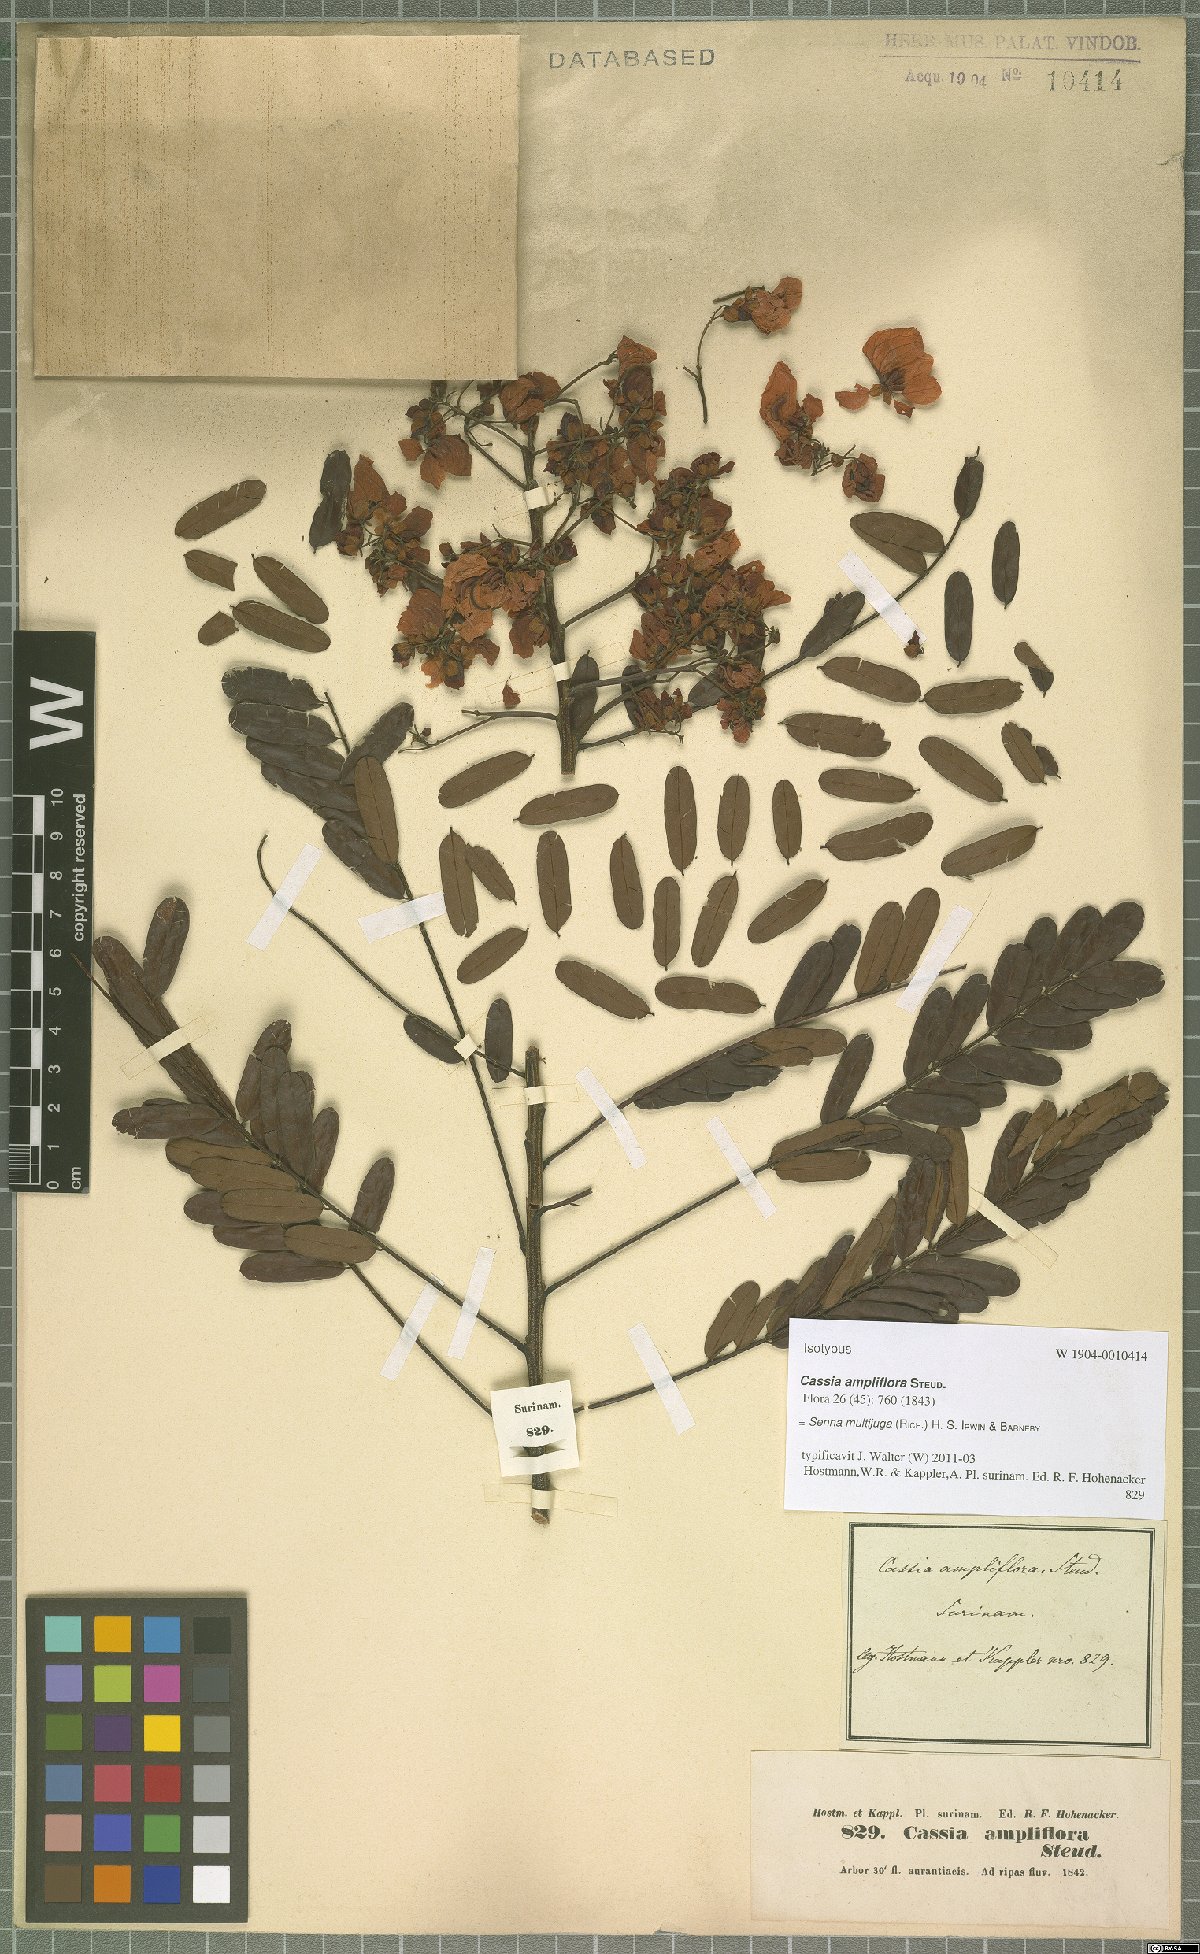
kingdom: Plantae
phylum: Tracheophyta
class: Magnoliopsida
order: Fabales
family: Fabaceae
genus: Senna
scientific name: Senna multijuga
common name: False sicklepod
